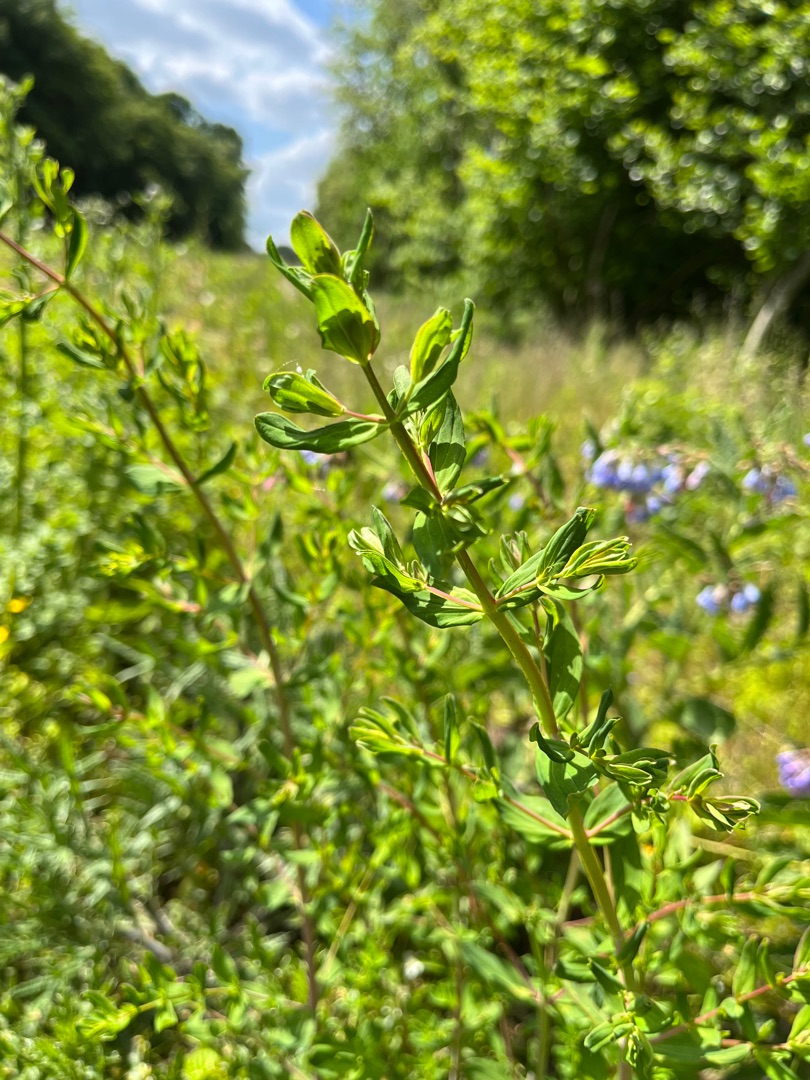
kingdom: Plantae
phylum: Tracheophyta
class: Magnoliopsida
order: Malpighiales
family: Hypericaceae
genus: Hypericum
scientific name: Hypericum perforatum
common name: Prikbladet perikon
